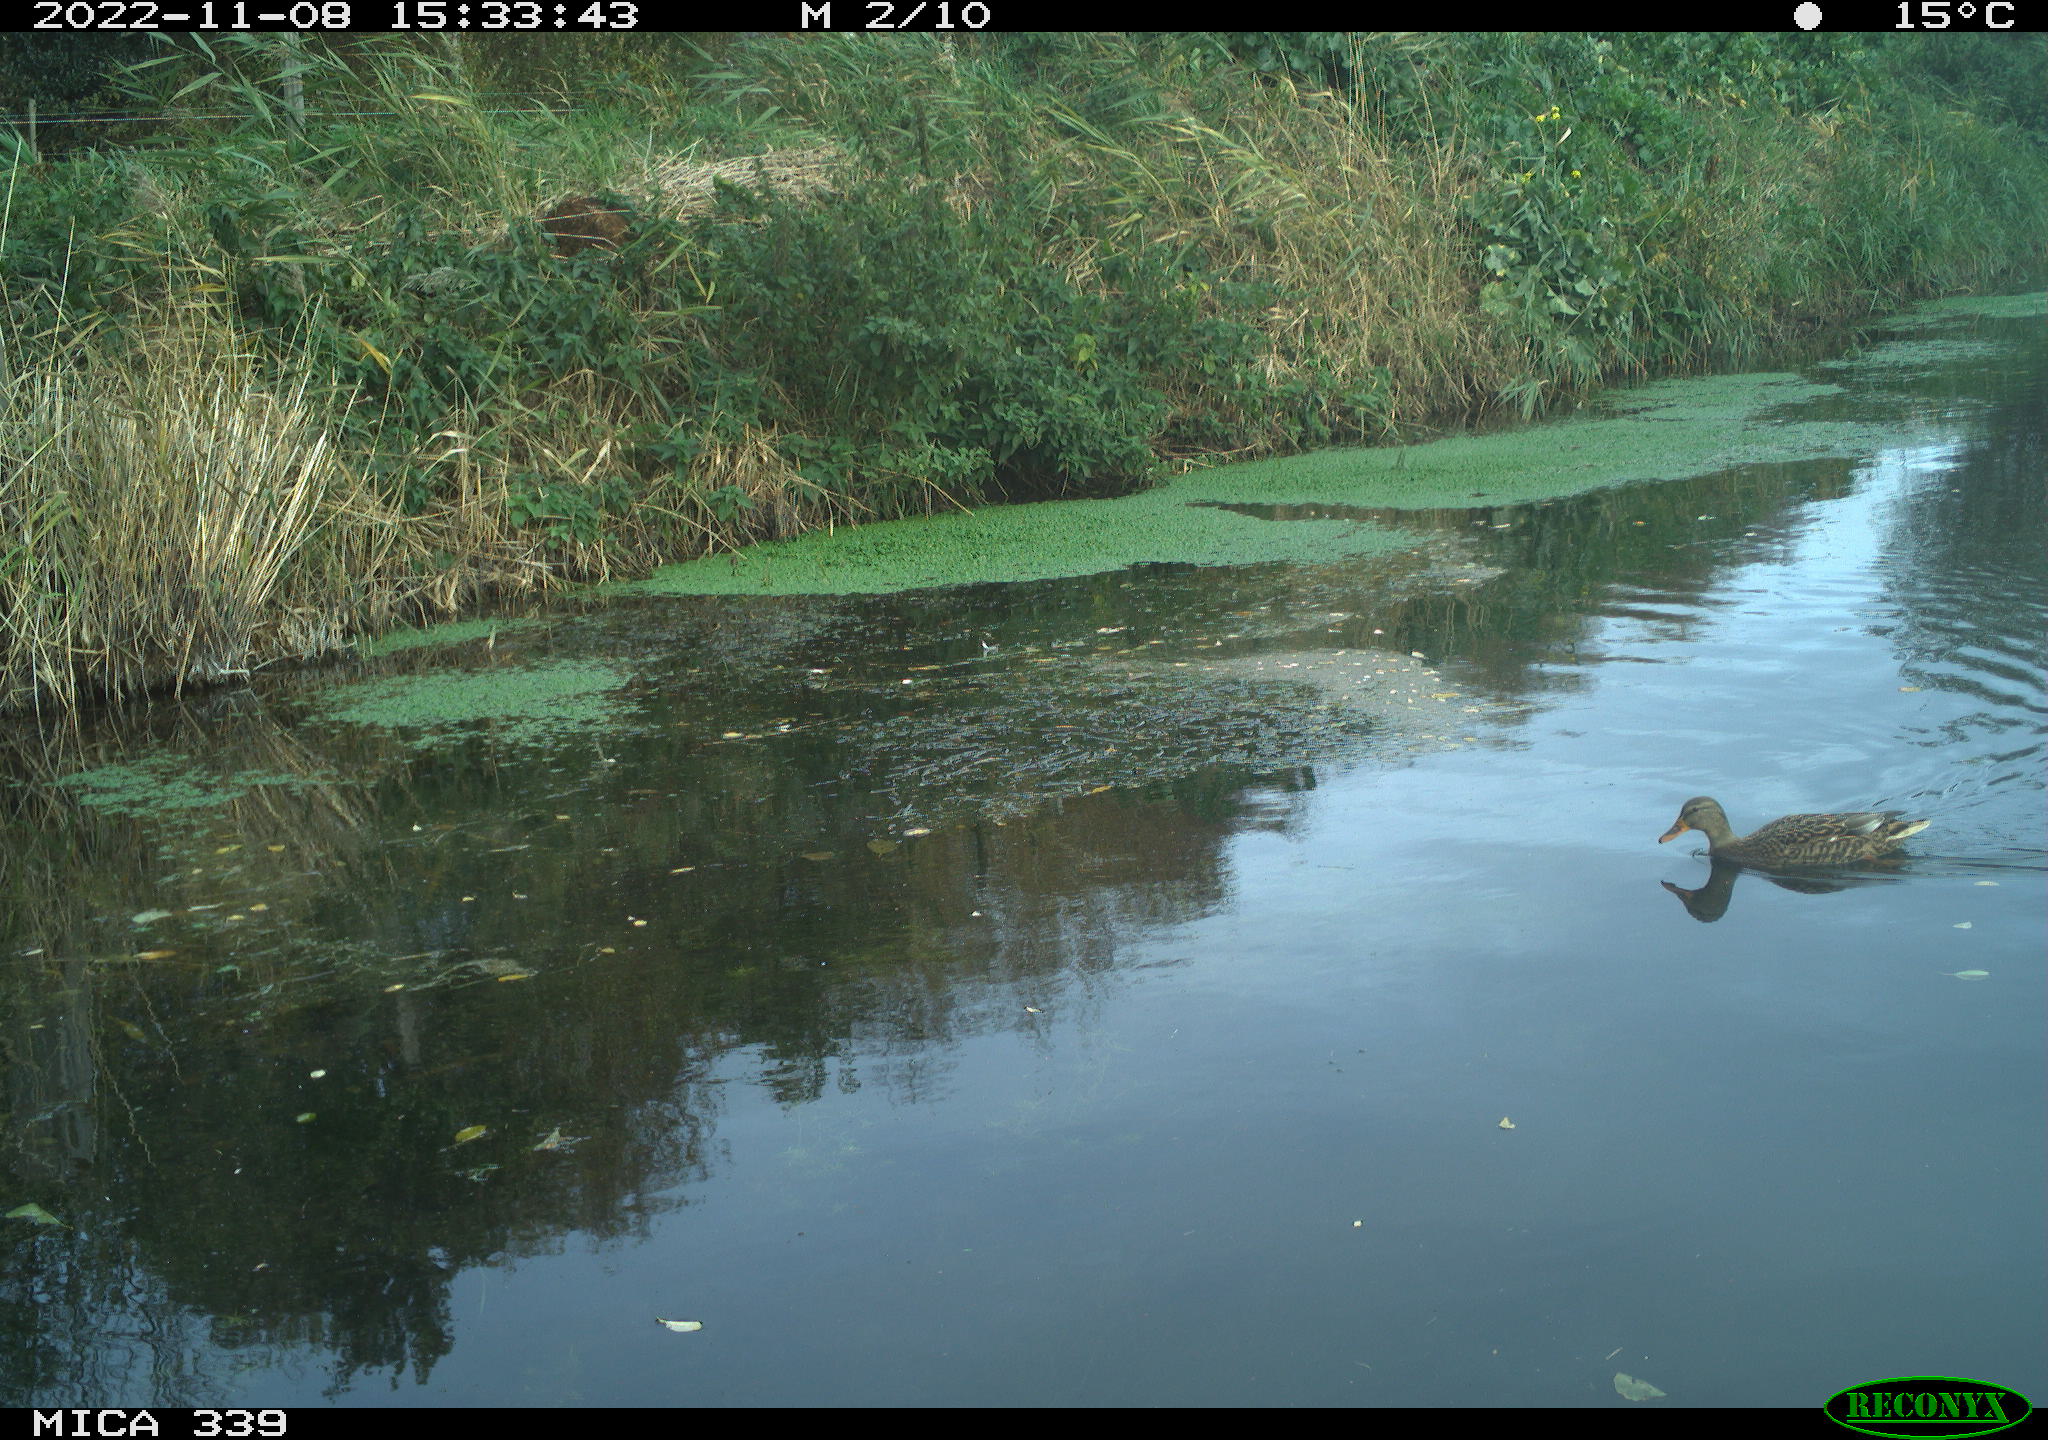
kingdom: Animalia
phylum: Chordata
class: Aves
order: Anseriformes
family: Anatidae
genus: Anas
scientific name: Anas platyrhynchos
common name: Mallard
